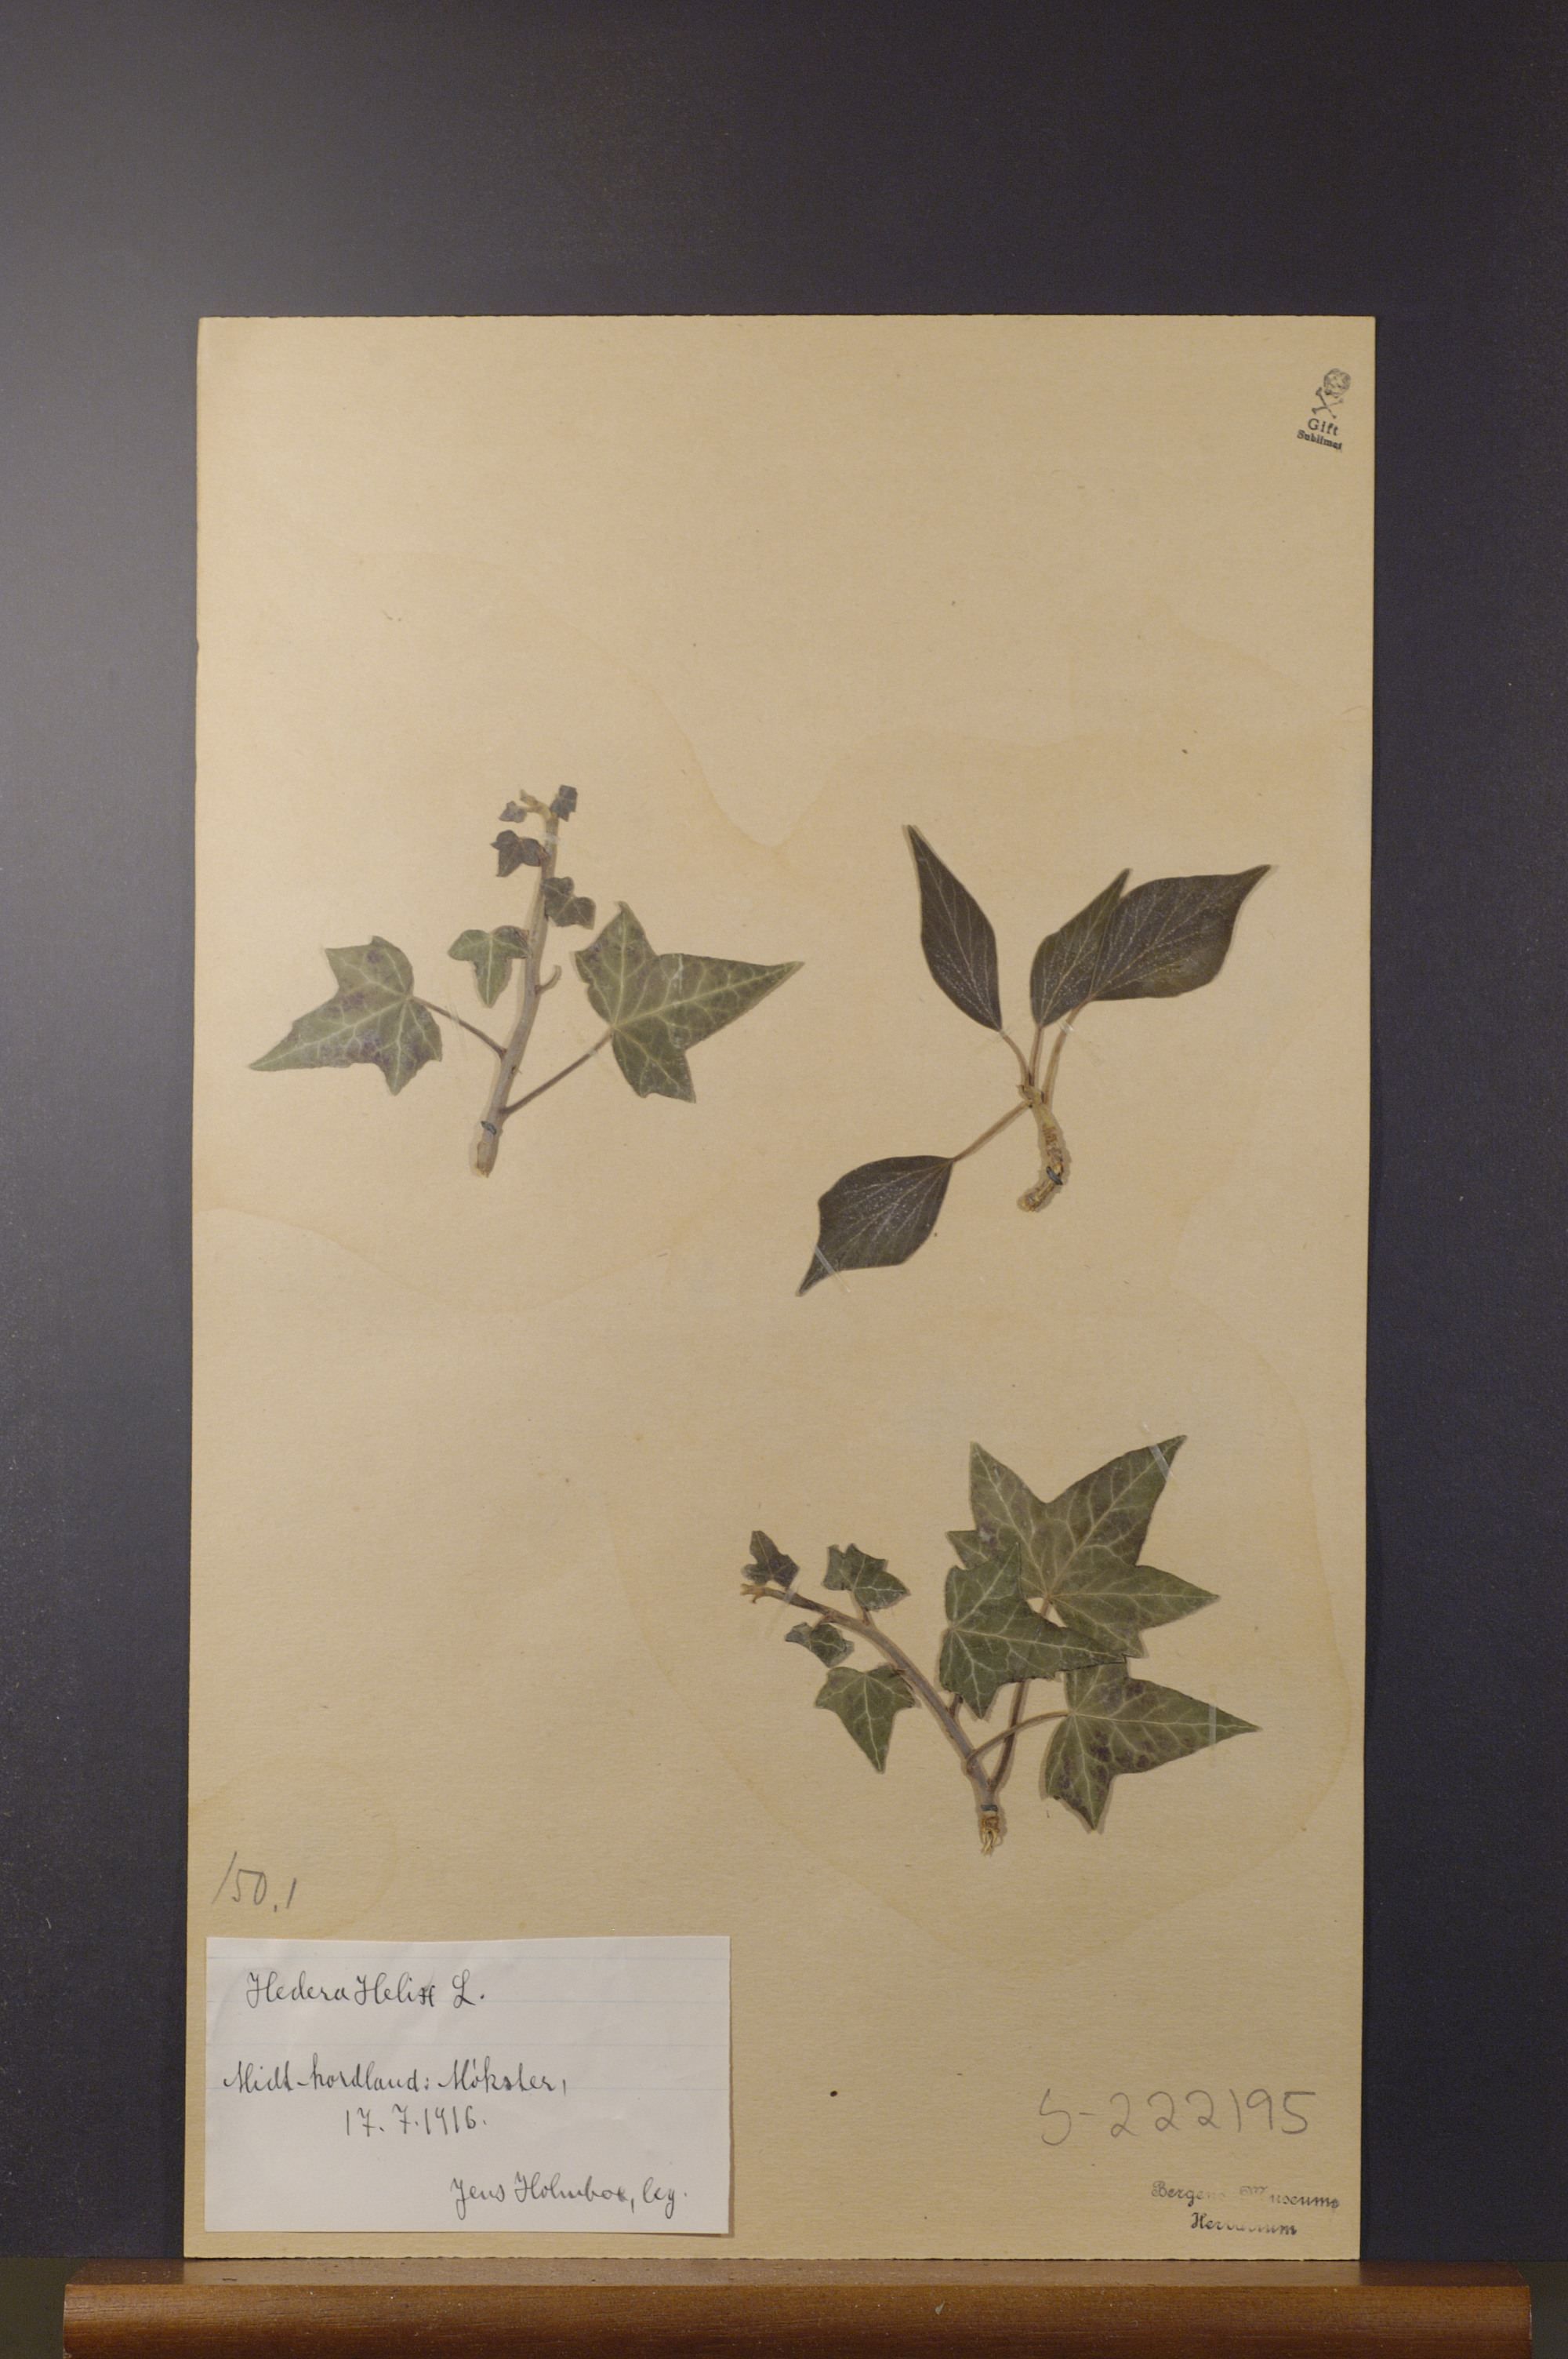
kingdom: Plantae
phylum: Tracheophyta
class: Magnoliopsida
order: Apiales
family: Araliaceae
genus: Hedera
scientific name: Hedera helix
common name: Ivy
